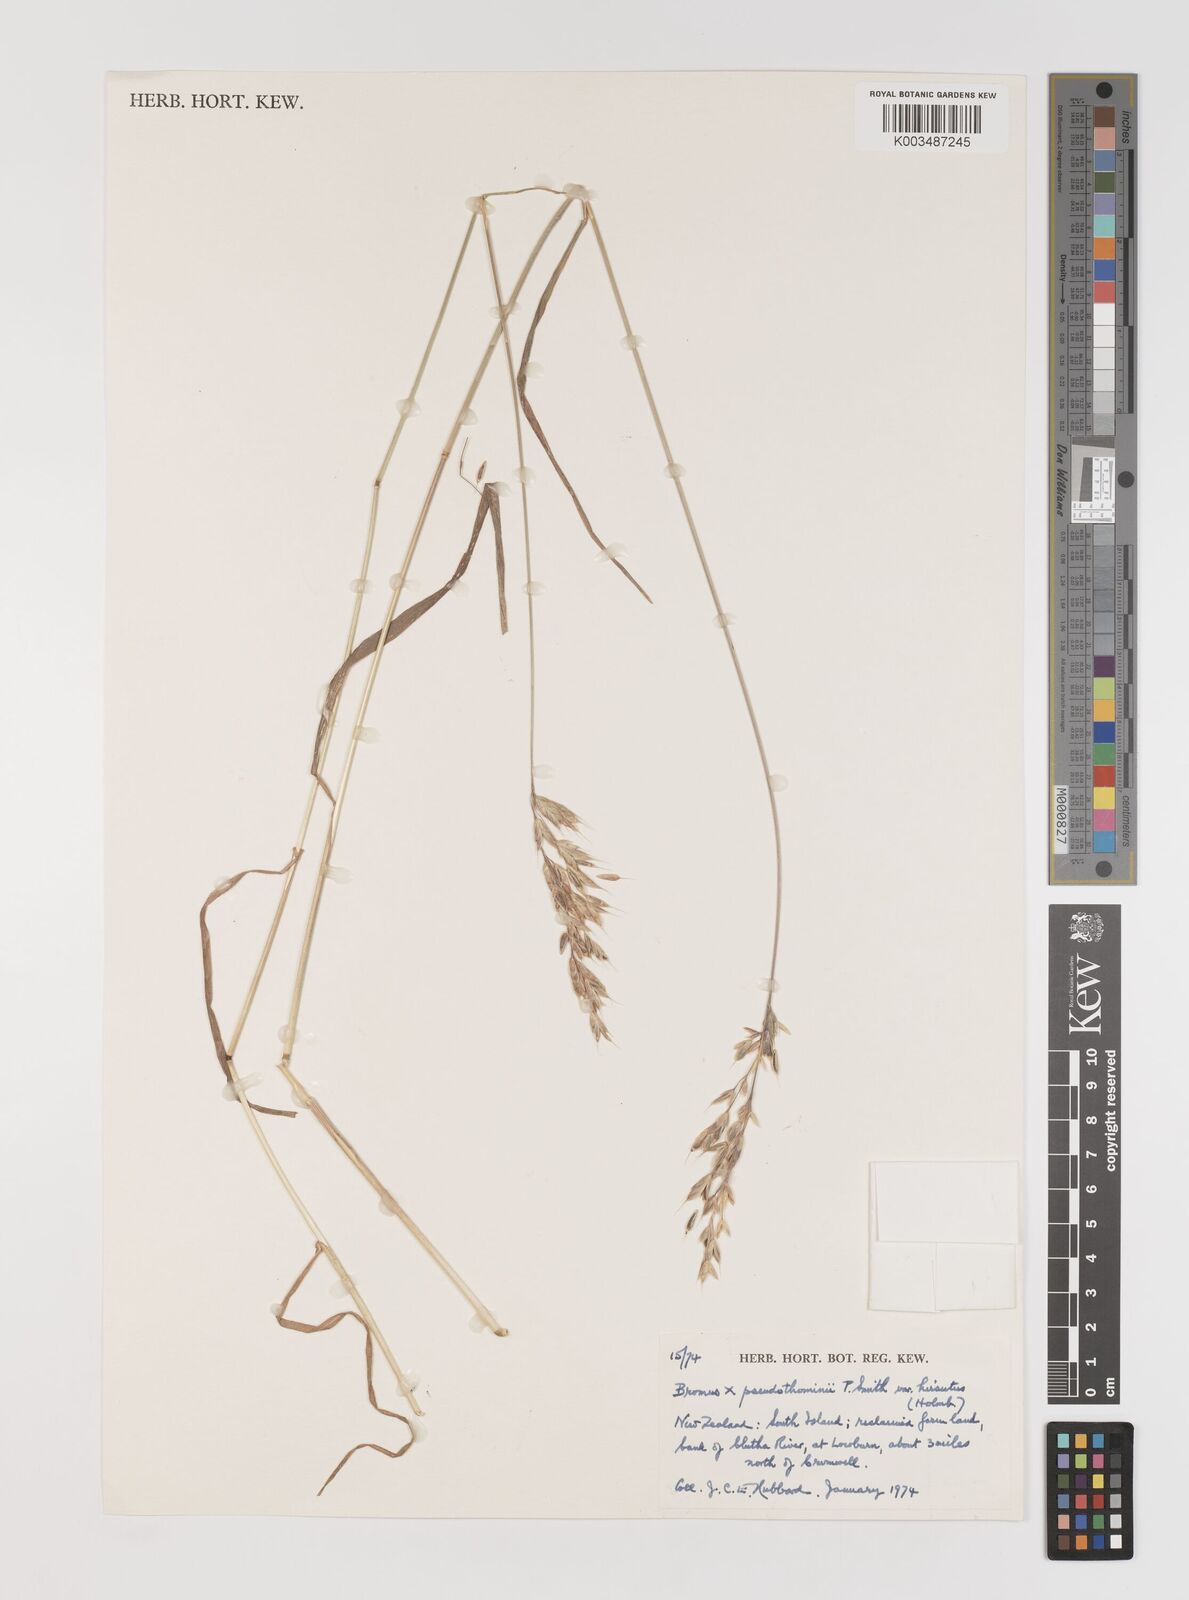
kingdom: Plantae
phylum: Tracheophyta
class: Liliopsida
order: Poales
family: Poaceae
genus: Bromus
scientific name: Bromus hordeaceus
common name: Soft brome
